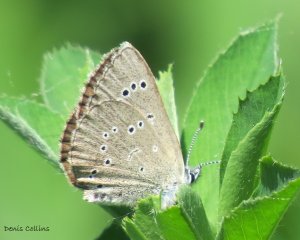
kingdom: Animalia
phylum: Arthropoda
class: Insecta
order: Lepidoptera
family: Lycaenidae
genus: Glaucopsyche
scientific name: Glaucopsyche lygdamus
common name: Silvery Blue
